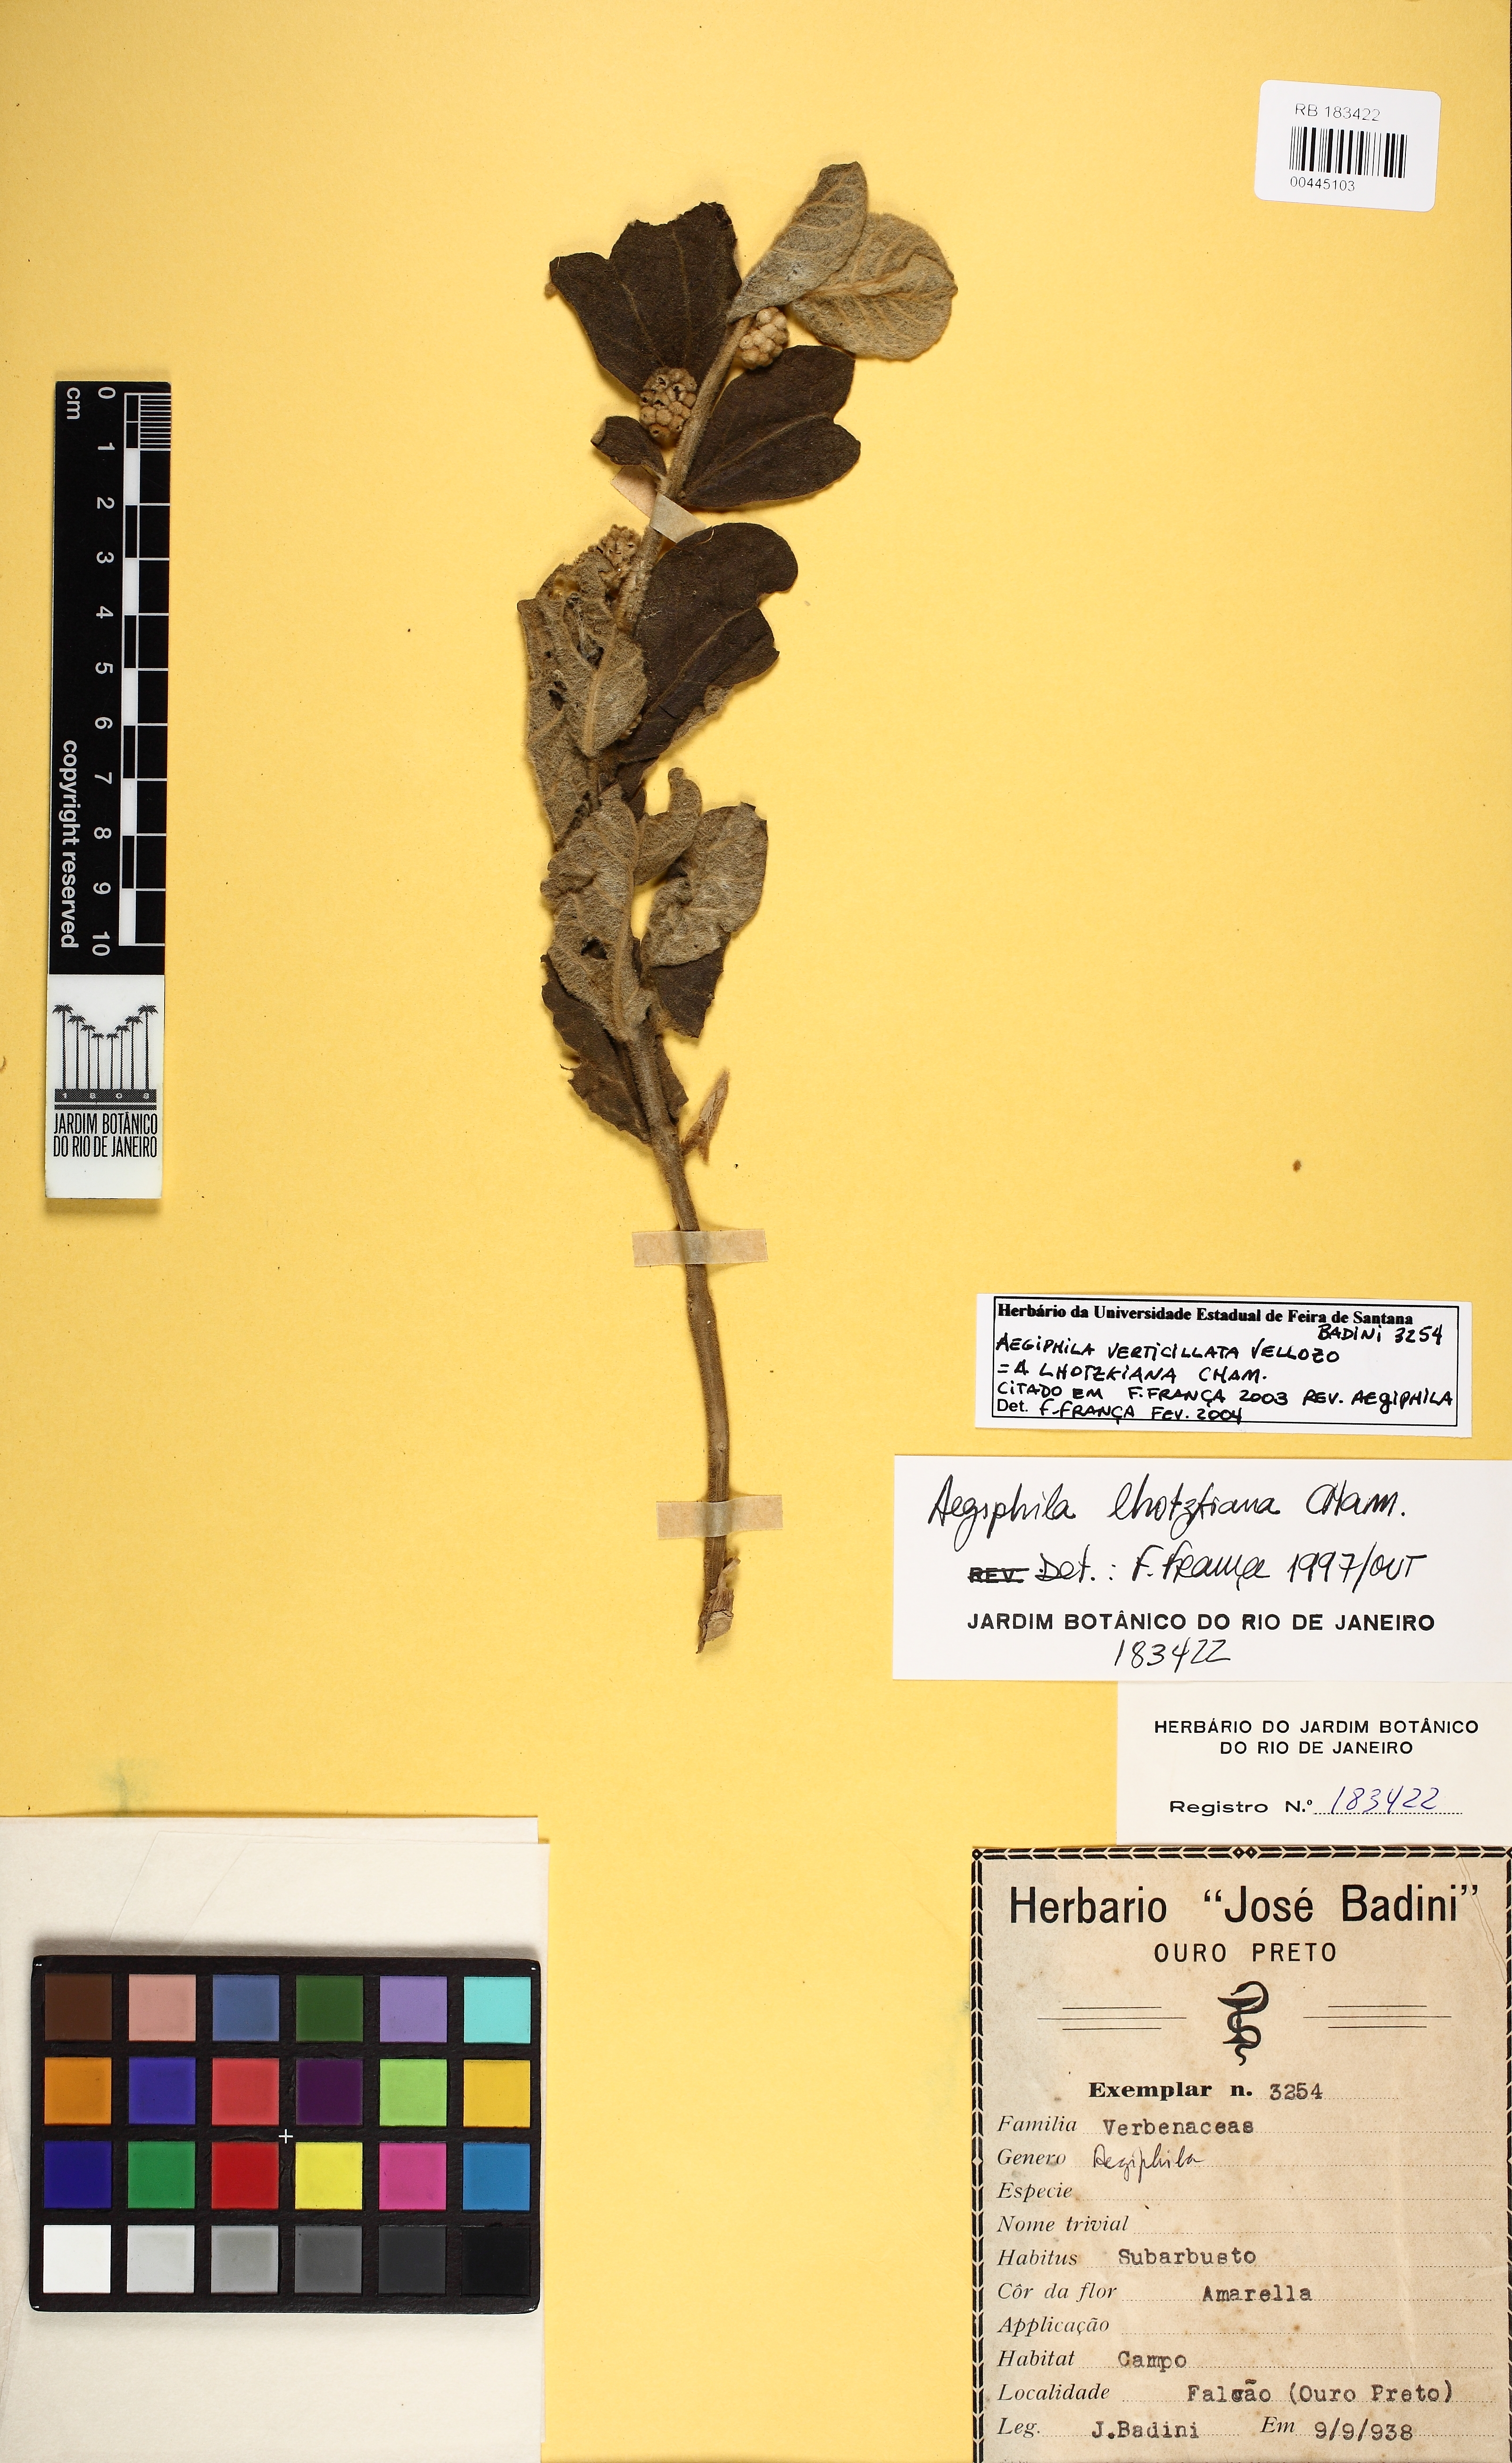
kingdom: Plantae
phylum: Tracheophyta
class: Magnoliopsida
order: Lamiales
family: Lamiaceae
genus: Aegiphila
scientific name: Aegiphila verticillata
